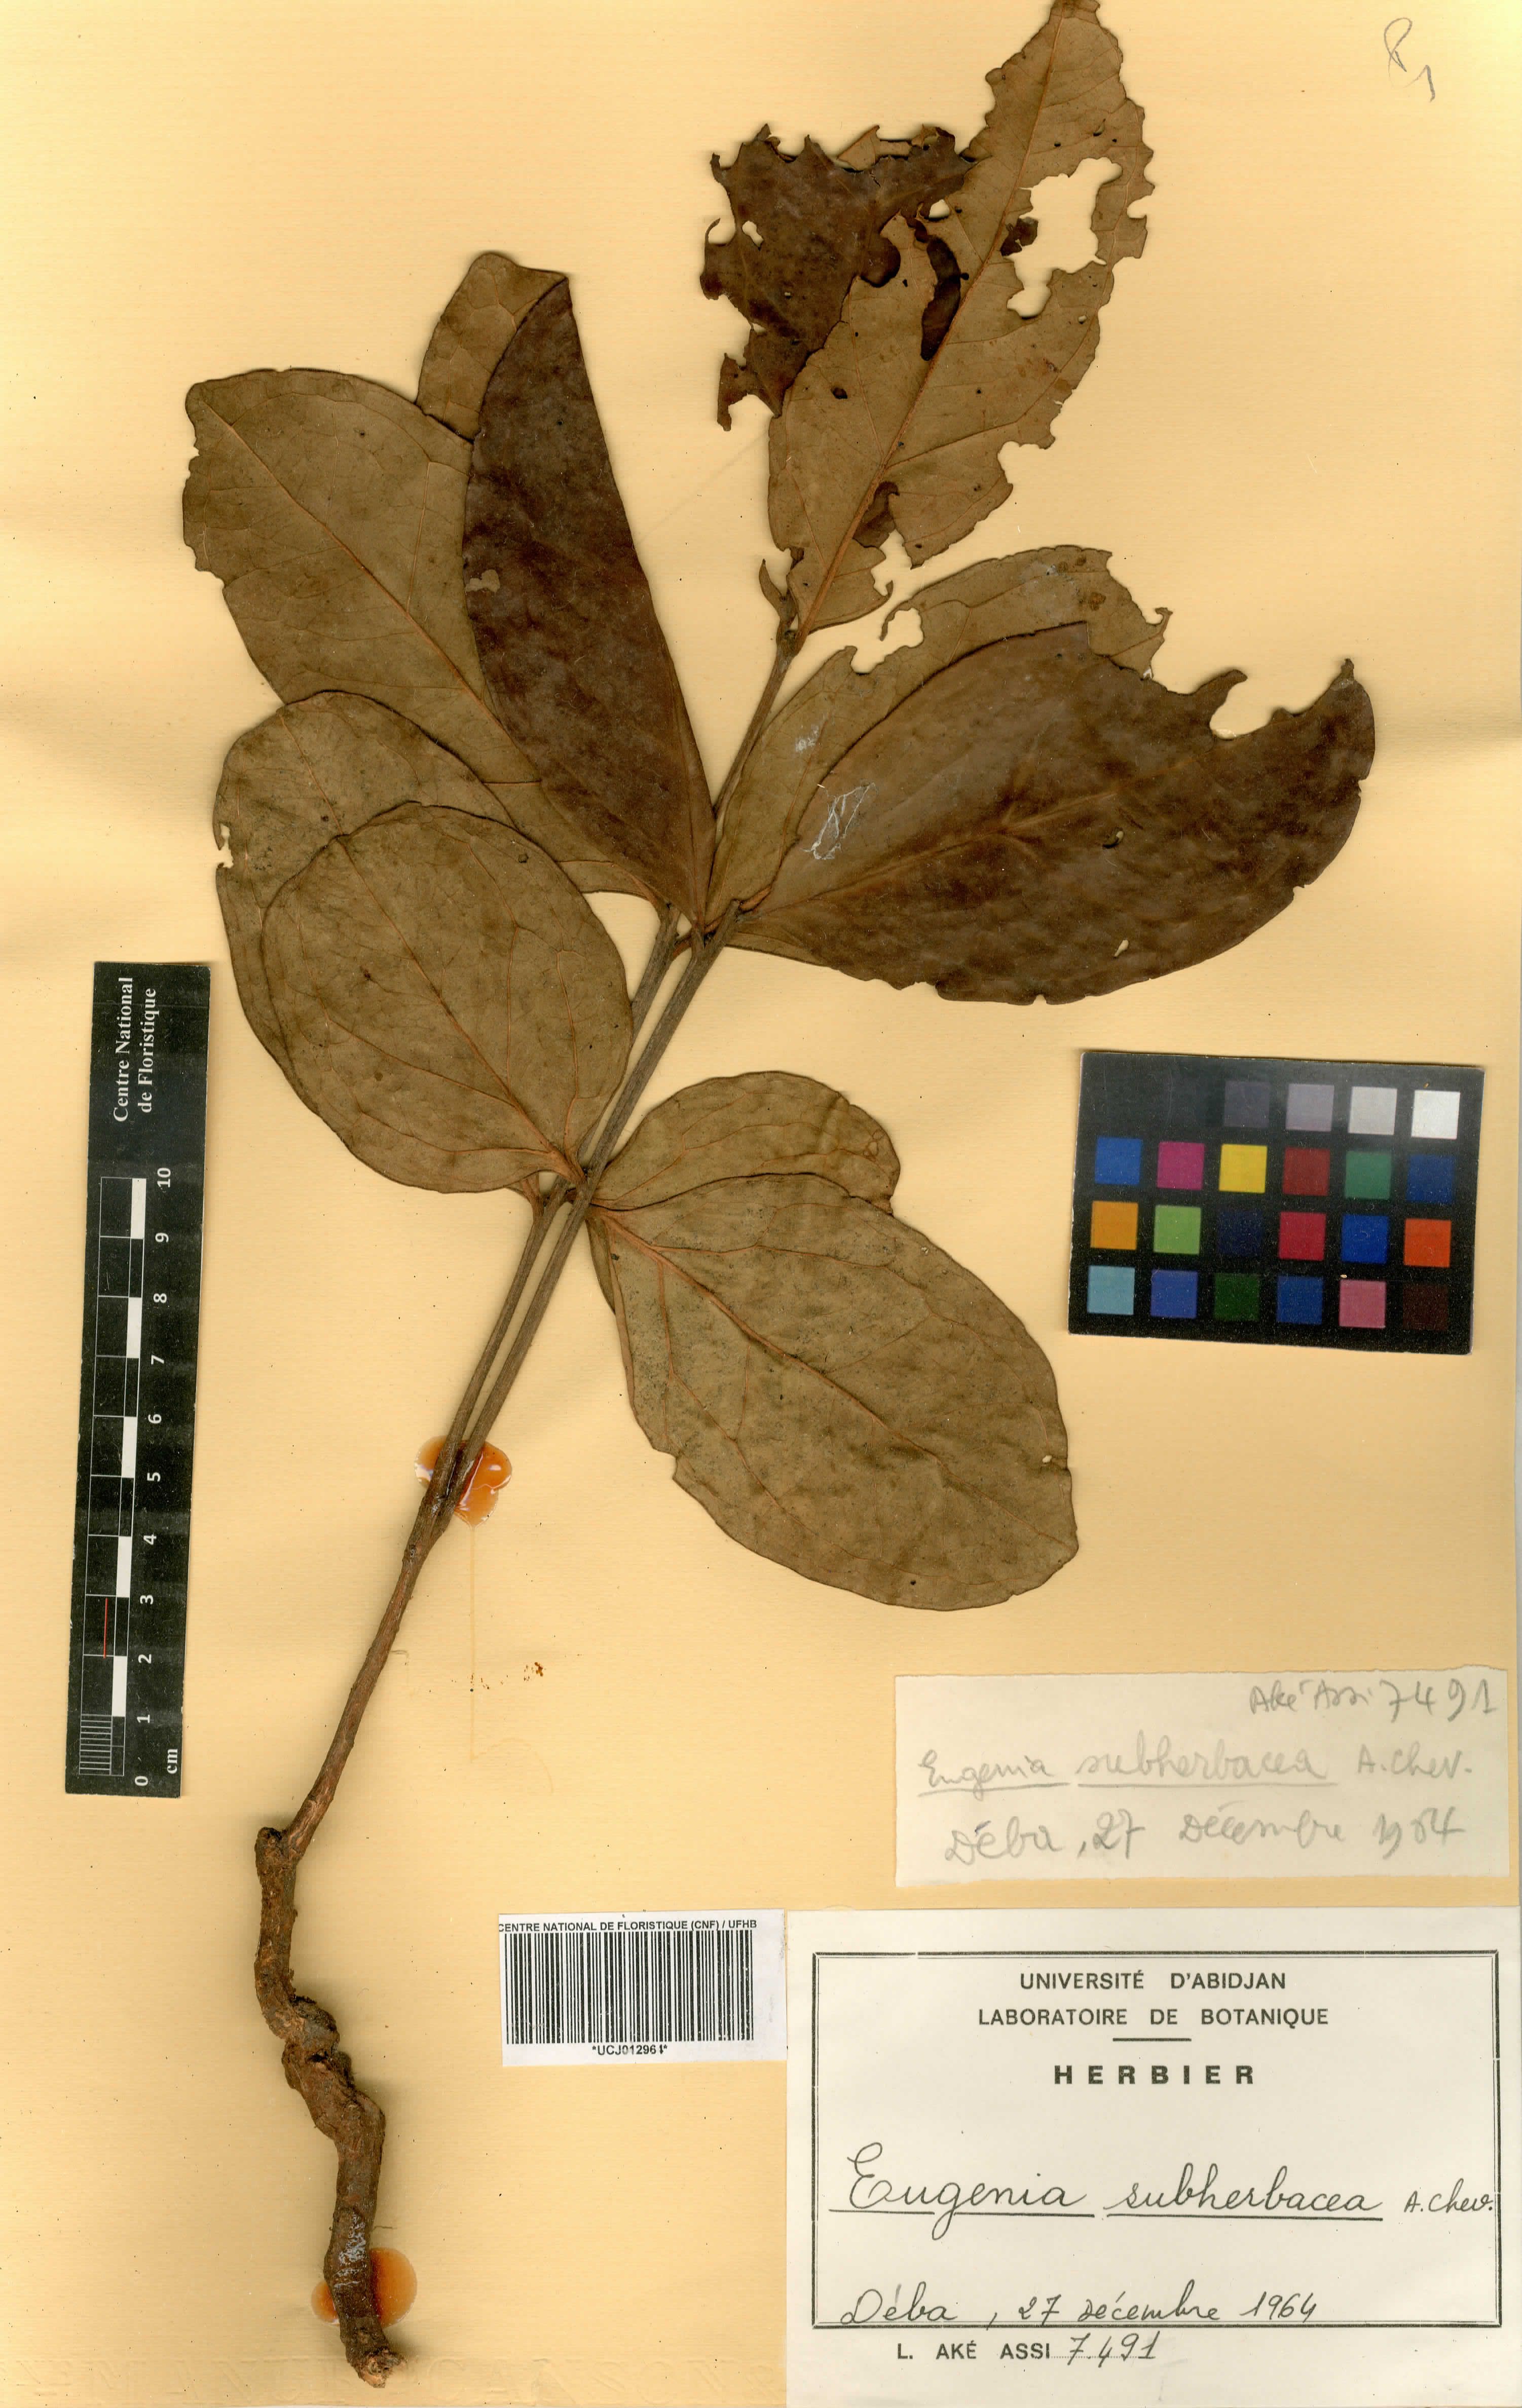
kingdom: Plantae
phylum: Tracheophyta
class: Magnoliopsida
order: Myrtales
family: Myrtaceae
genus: Eugenia
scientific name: Eugenia subherbacea
